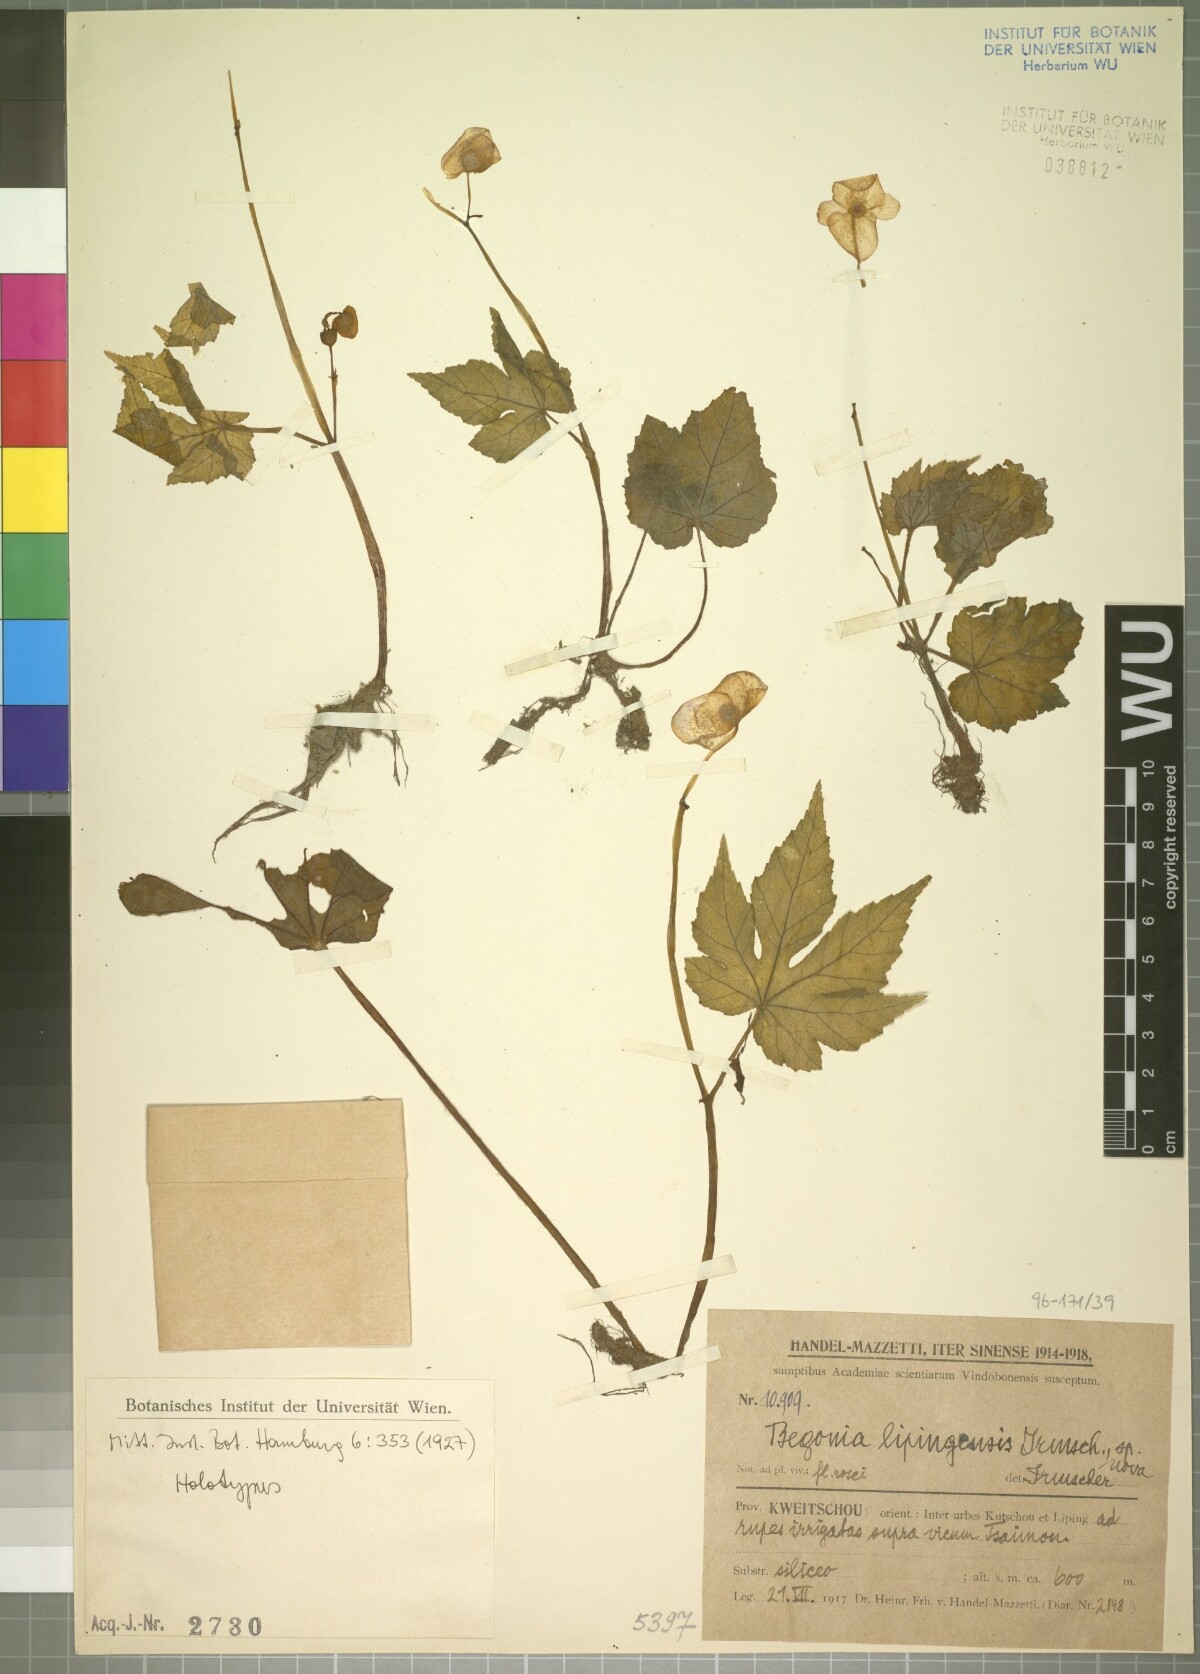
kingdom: Plantae
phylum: Tracheophyta
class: Magnoliopsida
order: Cucurbitales
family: Begoniaceae
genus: Begonia
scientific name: Begonia circumlobata
